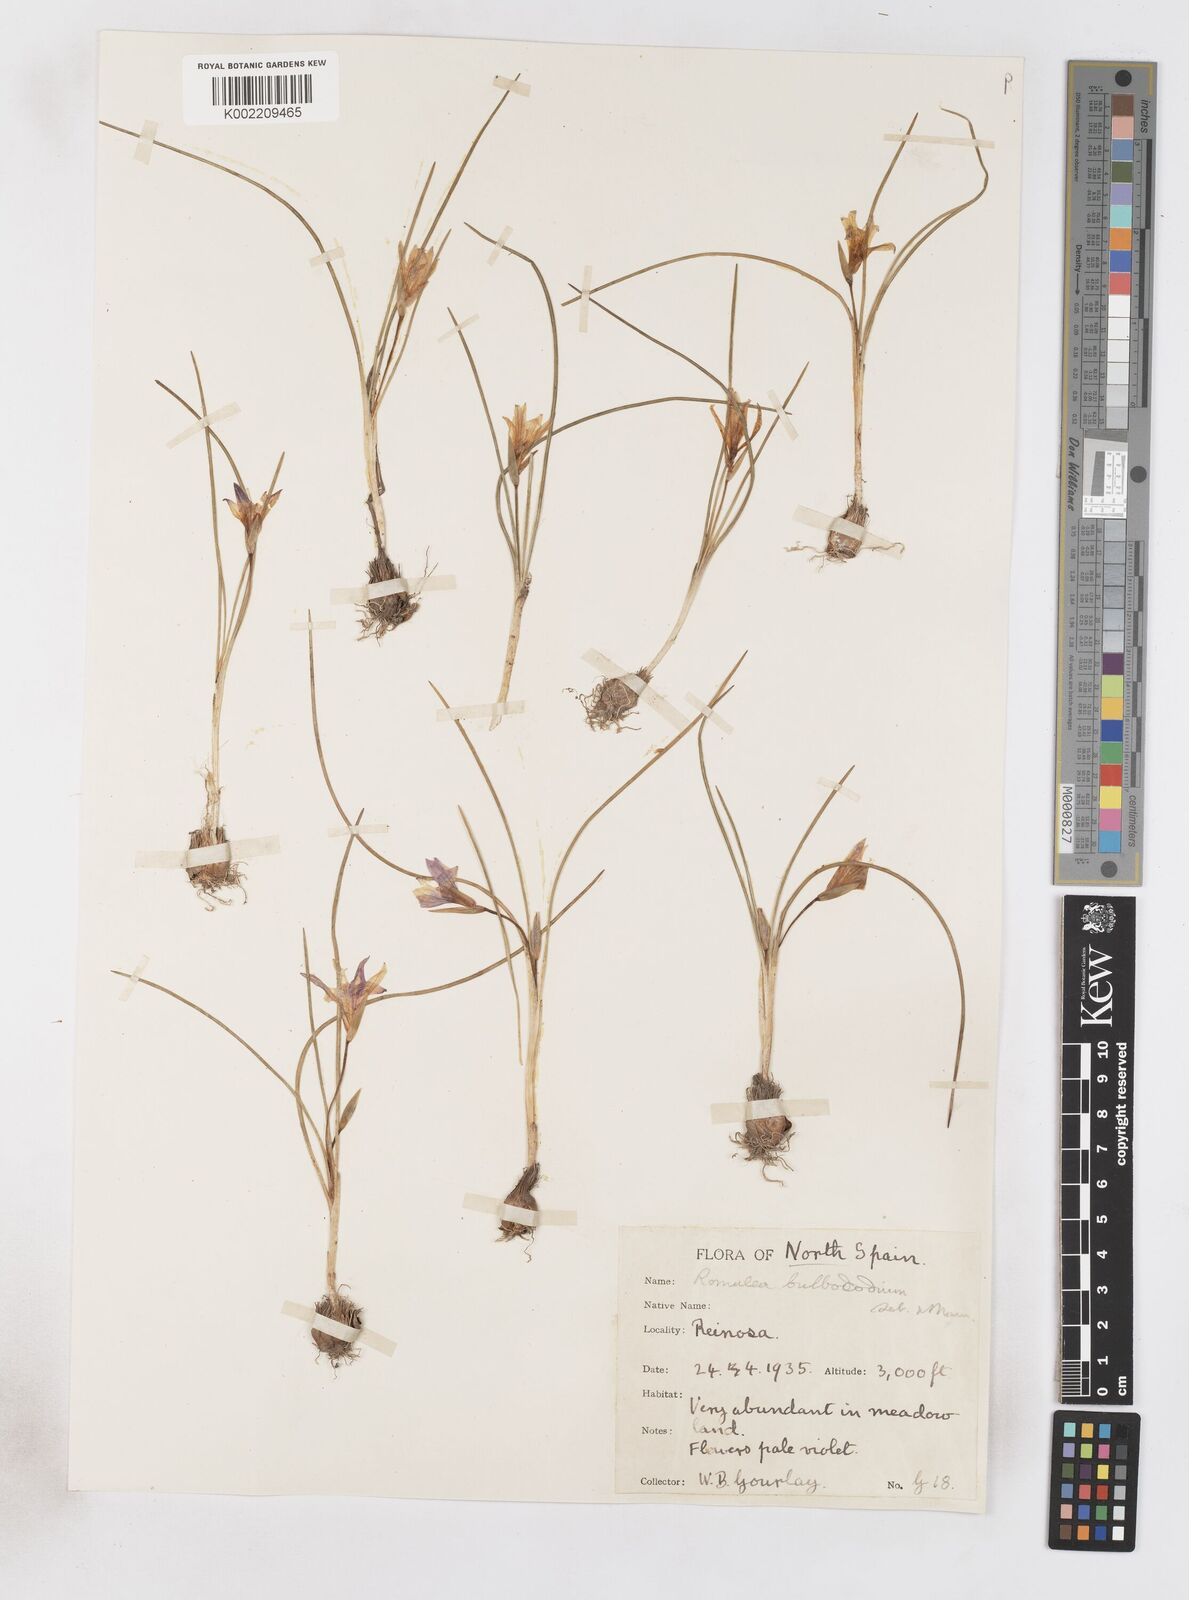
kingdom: Plantae
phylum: Tracheophyta
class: Liliopsida
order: Asparagales
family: Iridaceae
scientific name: Iridaceae
